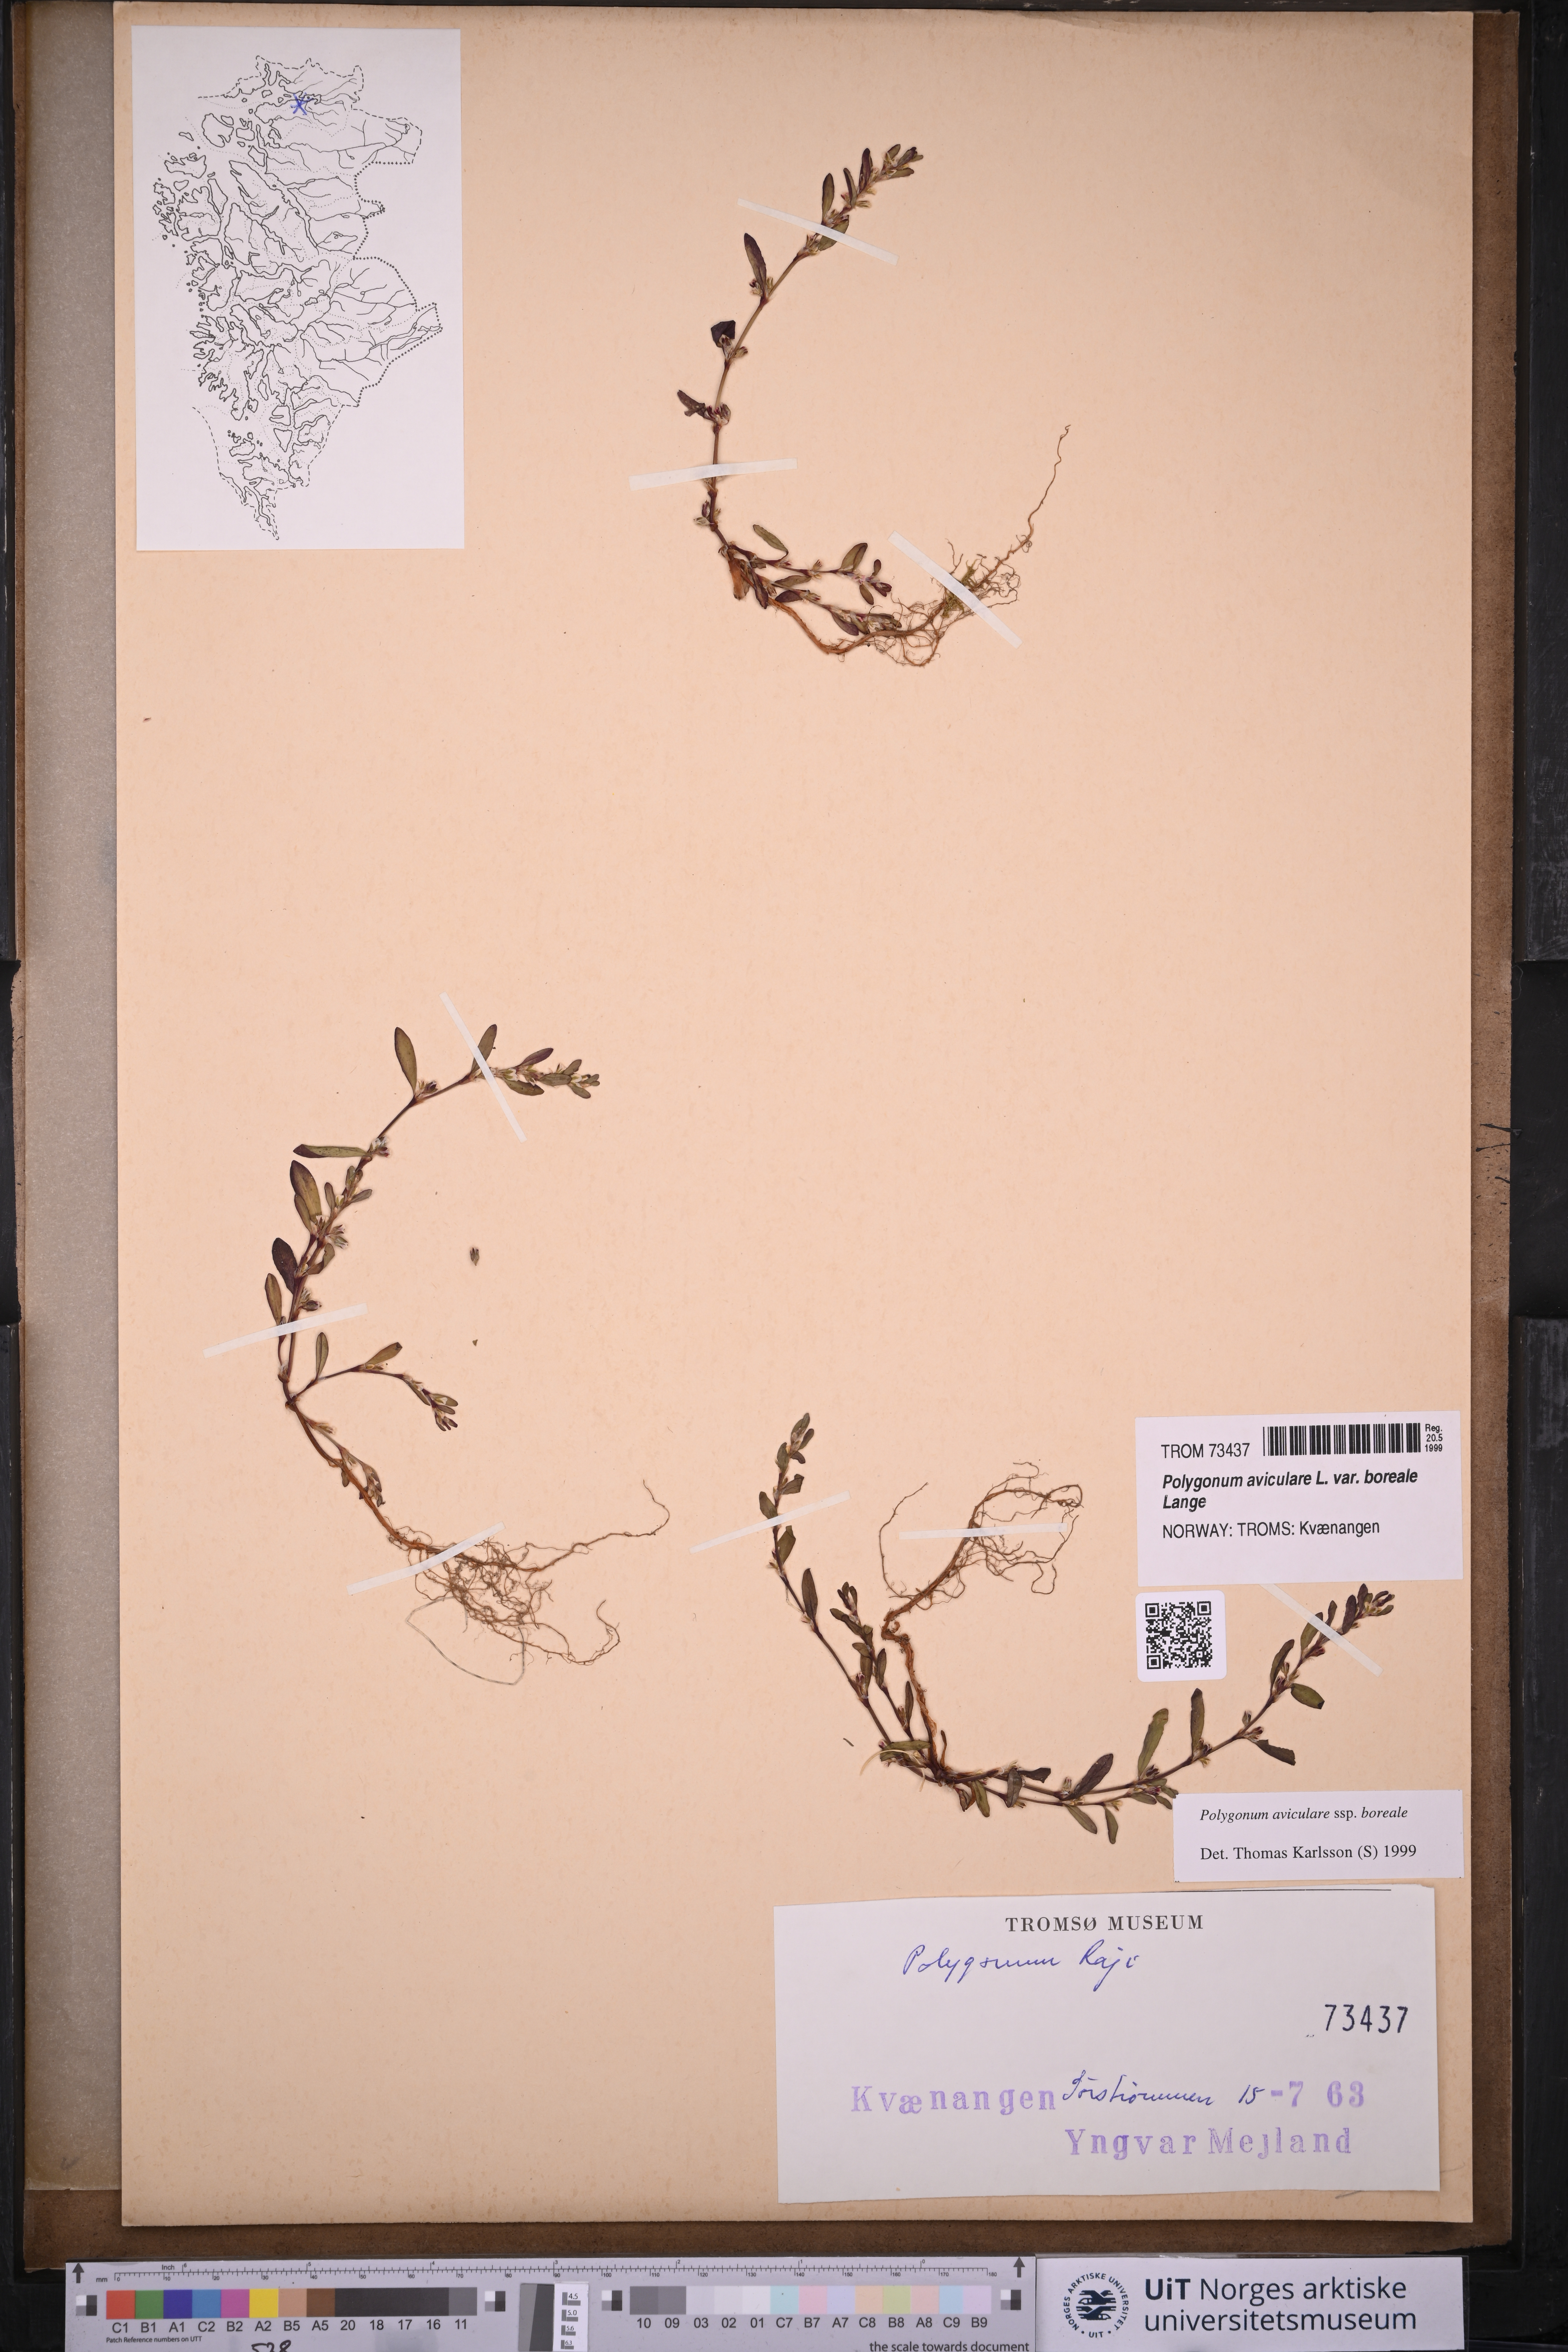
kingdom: Plantae
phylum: Tracheophyta
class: Magnoliopsida
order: Caryophyllales
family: Polygonaceae
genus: Polygonum
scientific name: Polygonum boreale
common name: Northern knotgrass
